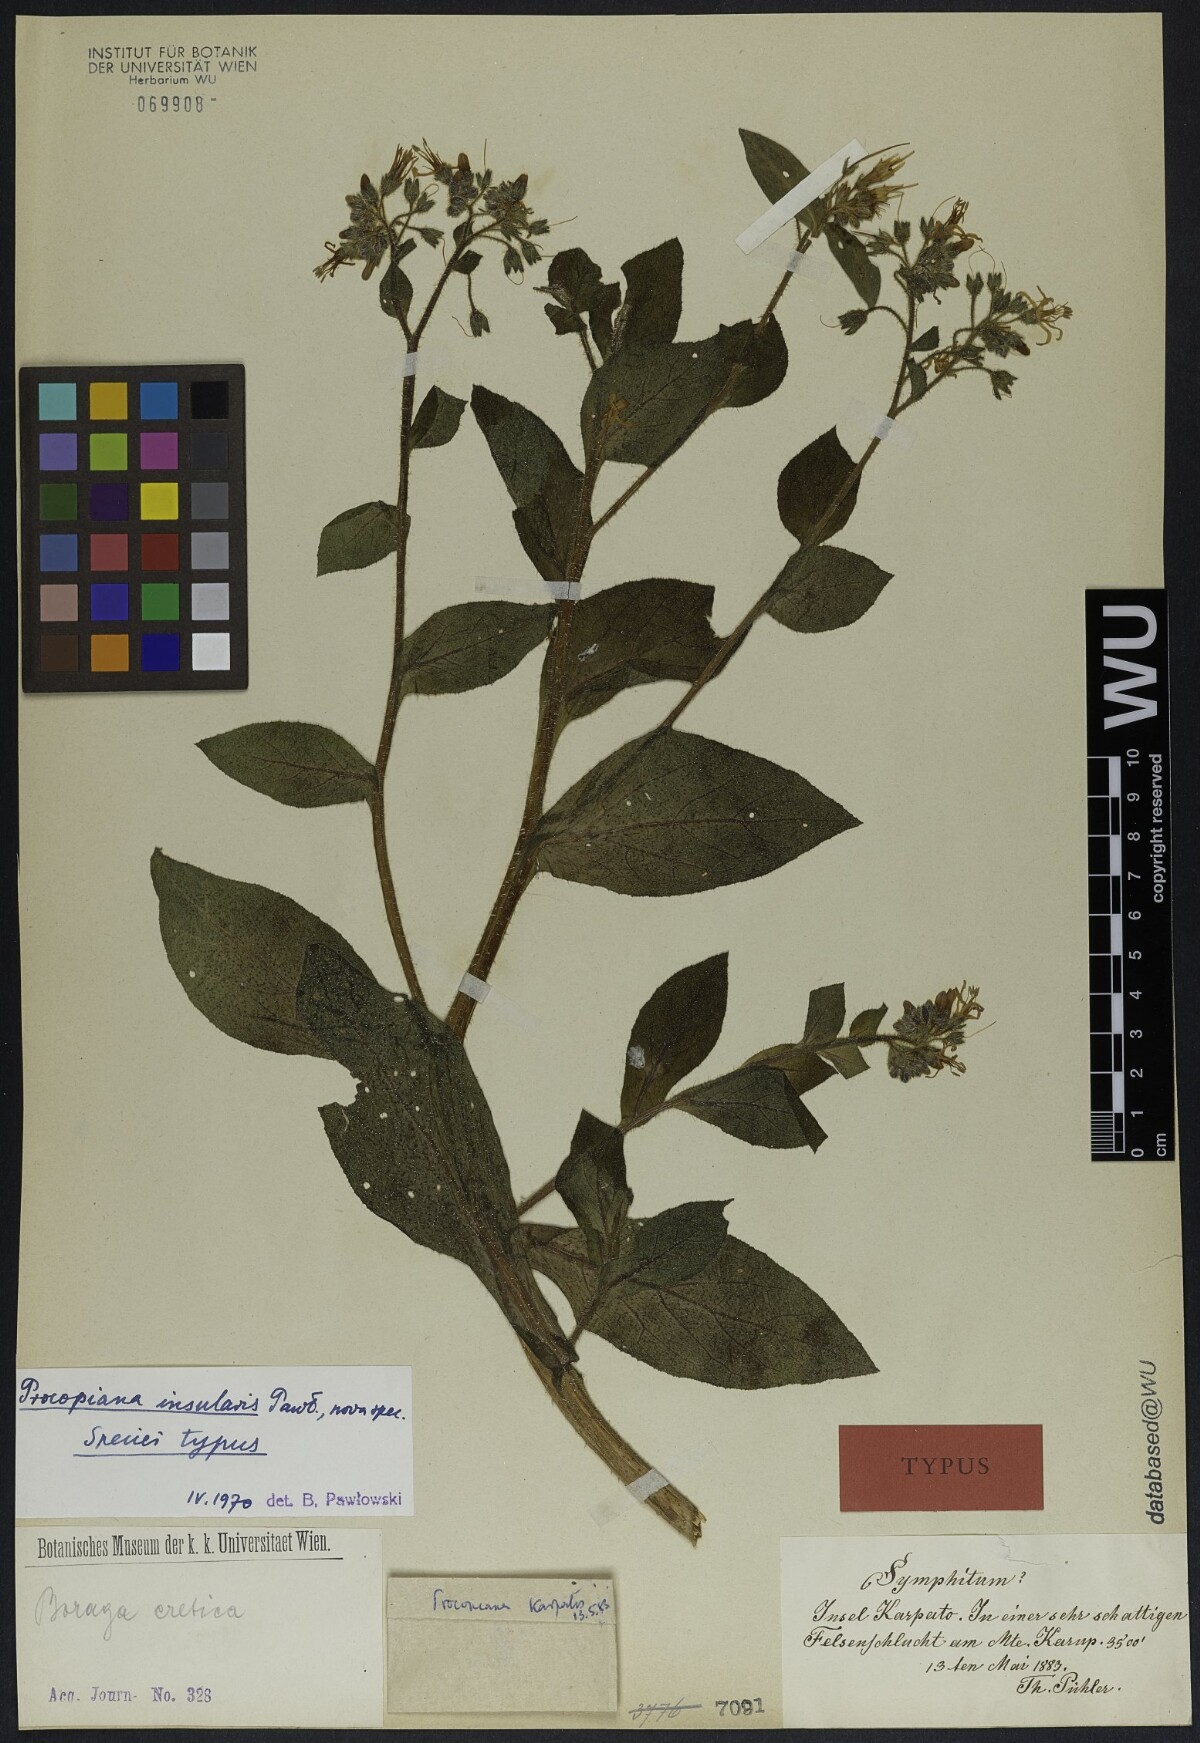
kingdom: Plantae
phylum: Tracheophyta
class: Magnoliopsida
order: Boraginales
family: Boraginaceae
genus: Symphytum
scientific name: Symphytum creticum
